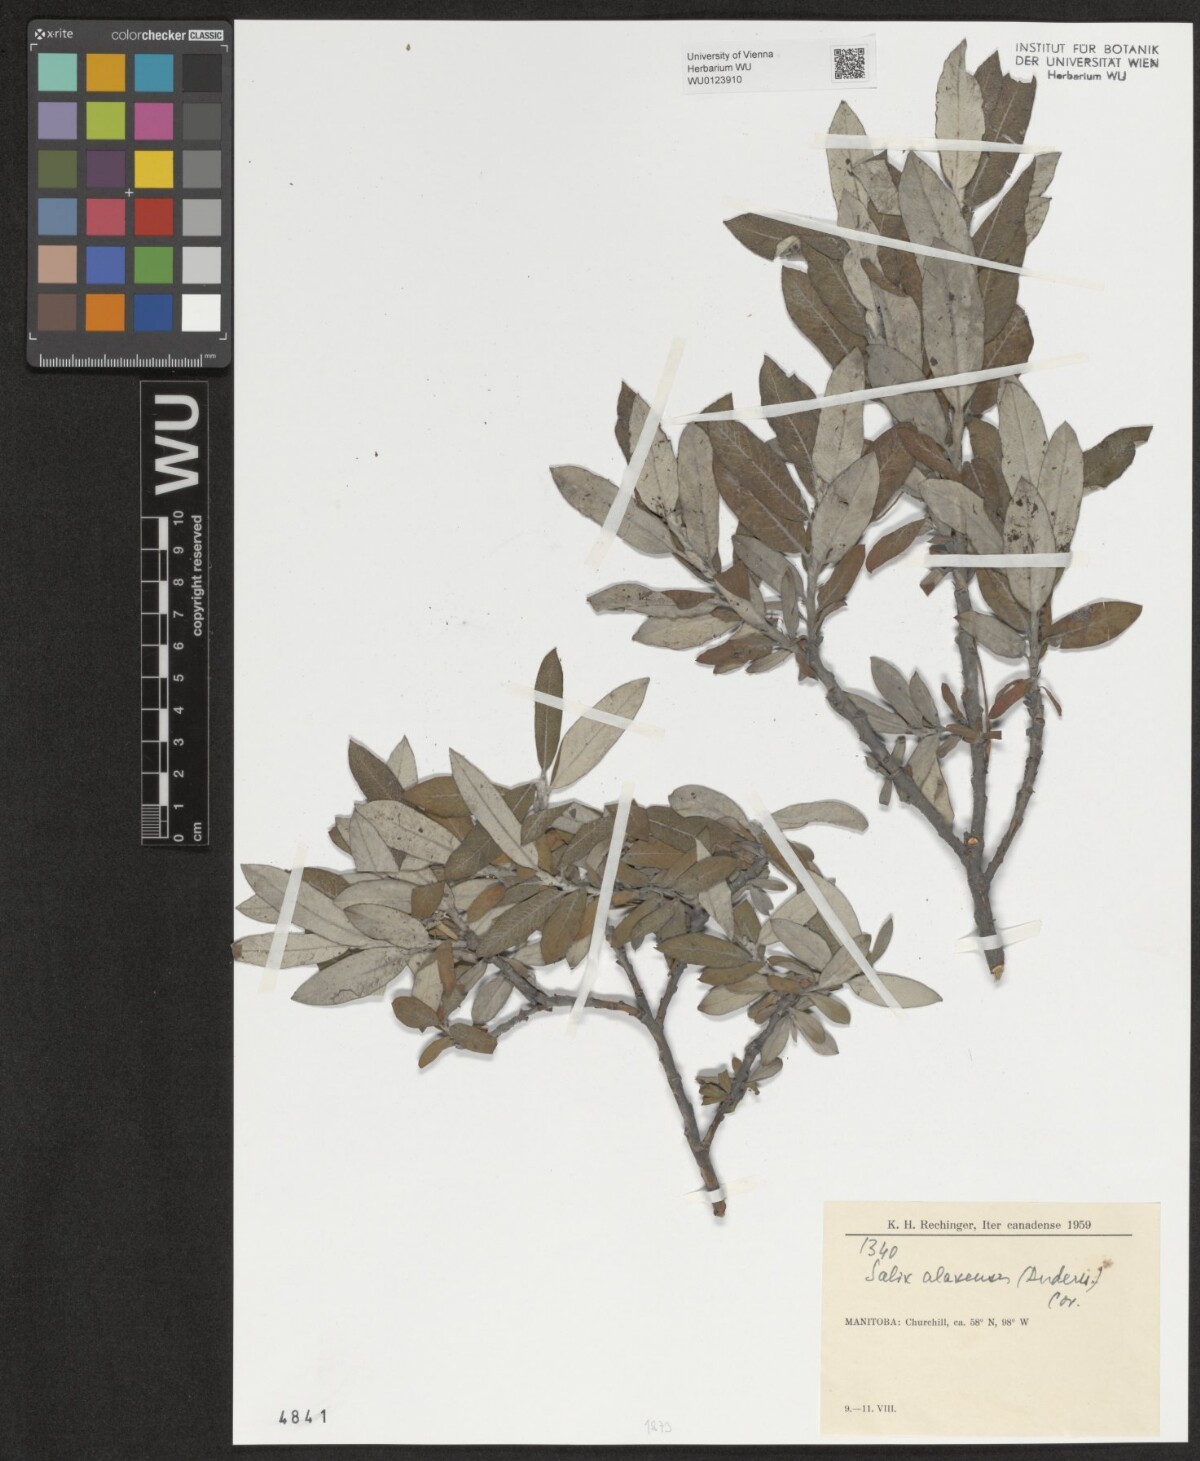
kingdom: Plantae
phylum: Tracheophyta
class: Magnoliopsida
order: Malpighiales
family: Salicaceae
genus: Salix
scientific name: Salix alaxensis
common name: Feltleaf willow
